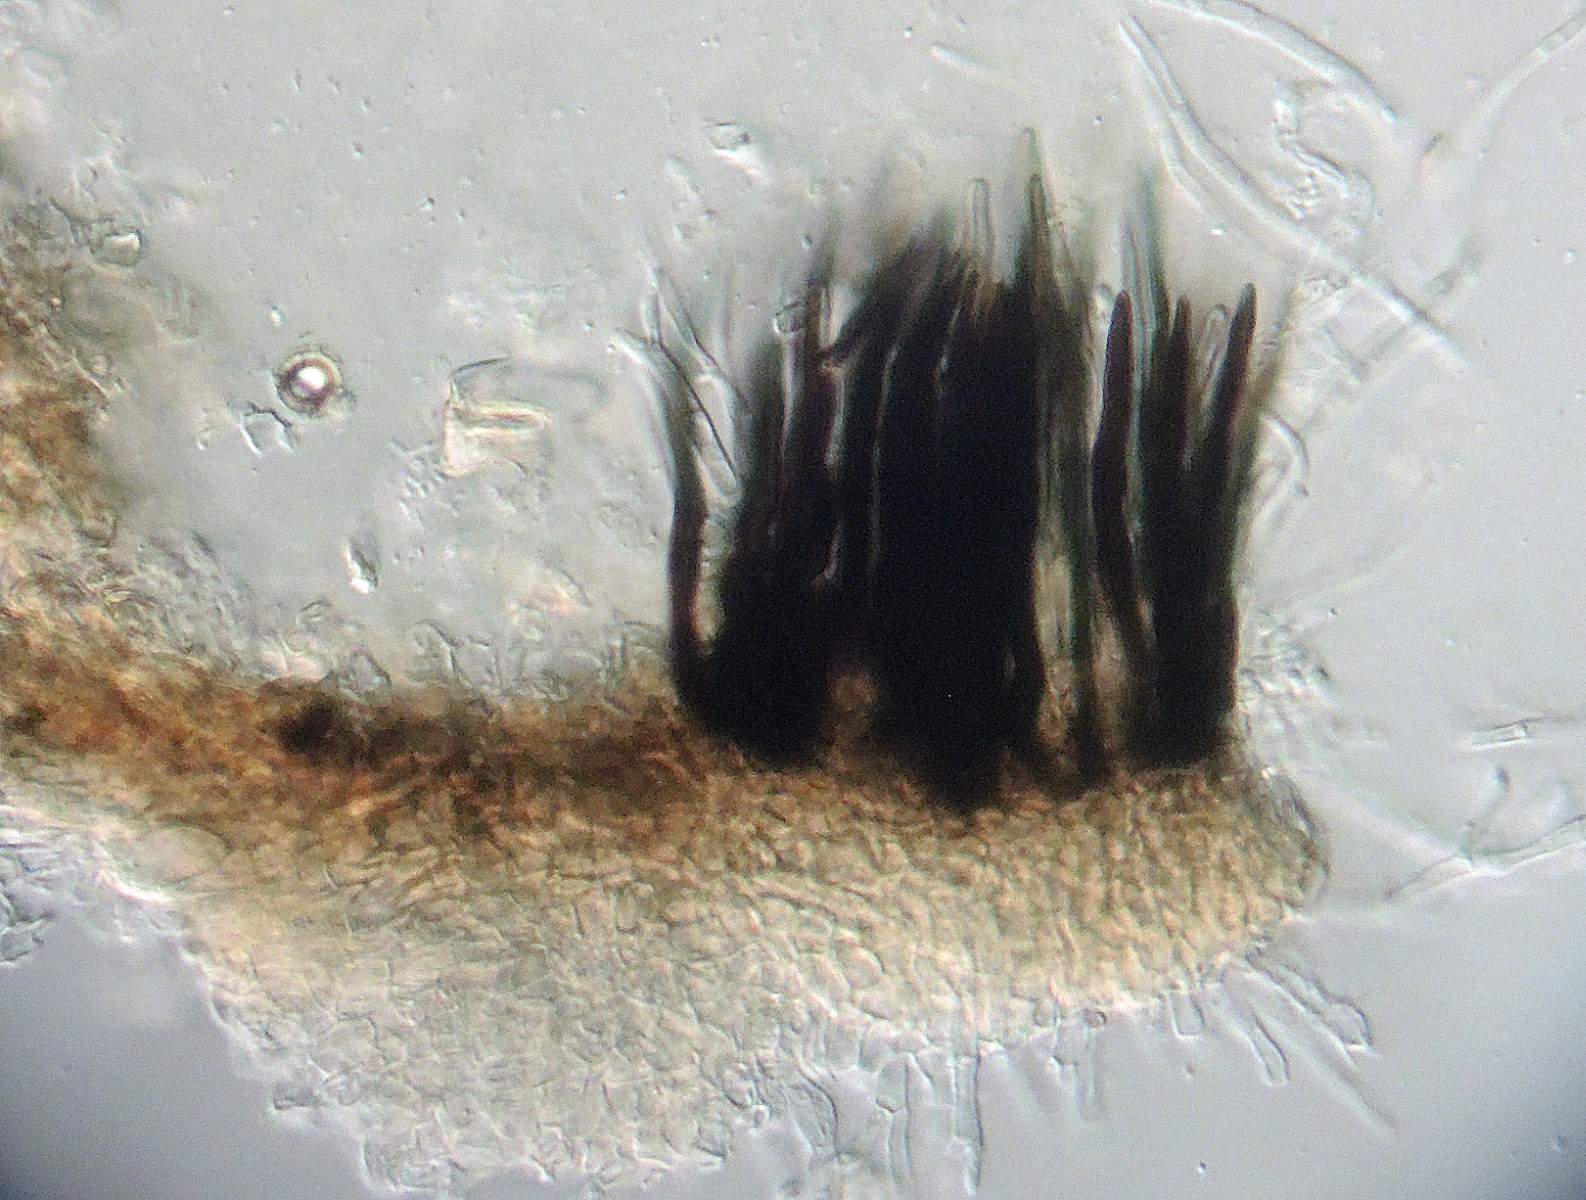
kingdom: Fungi
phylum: Ascomycota
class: Dothideomycetes
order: Pleosporales
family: Lentitheciaceae
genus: Keissleriella
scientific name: Keissleriella
